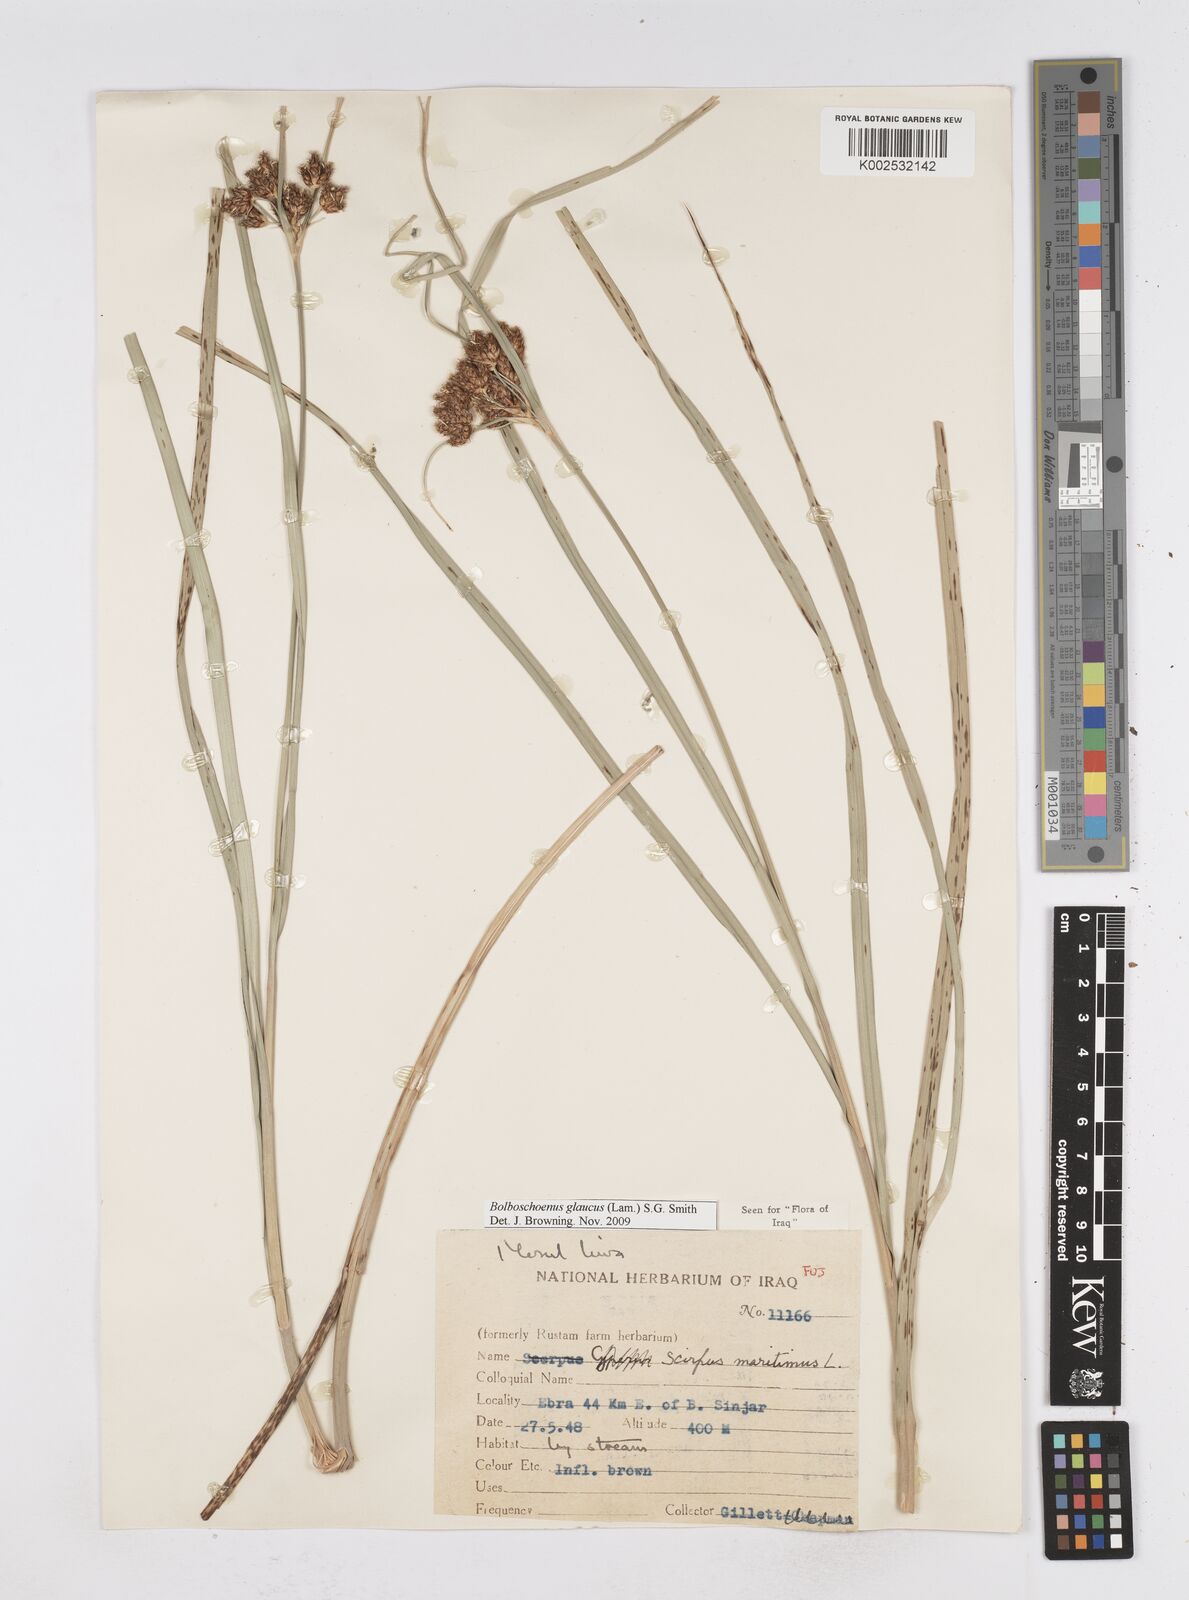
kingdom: Plantae
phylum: Tracheophyta
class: Liliopsida
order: Poales
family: Cyperaceae
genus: Bolboschoenus
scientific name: Bolboschoenus maritimus
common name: Sea club-rush
